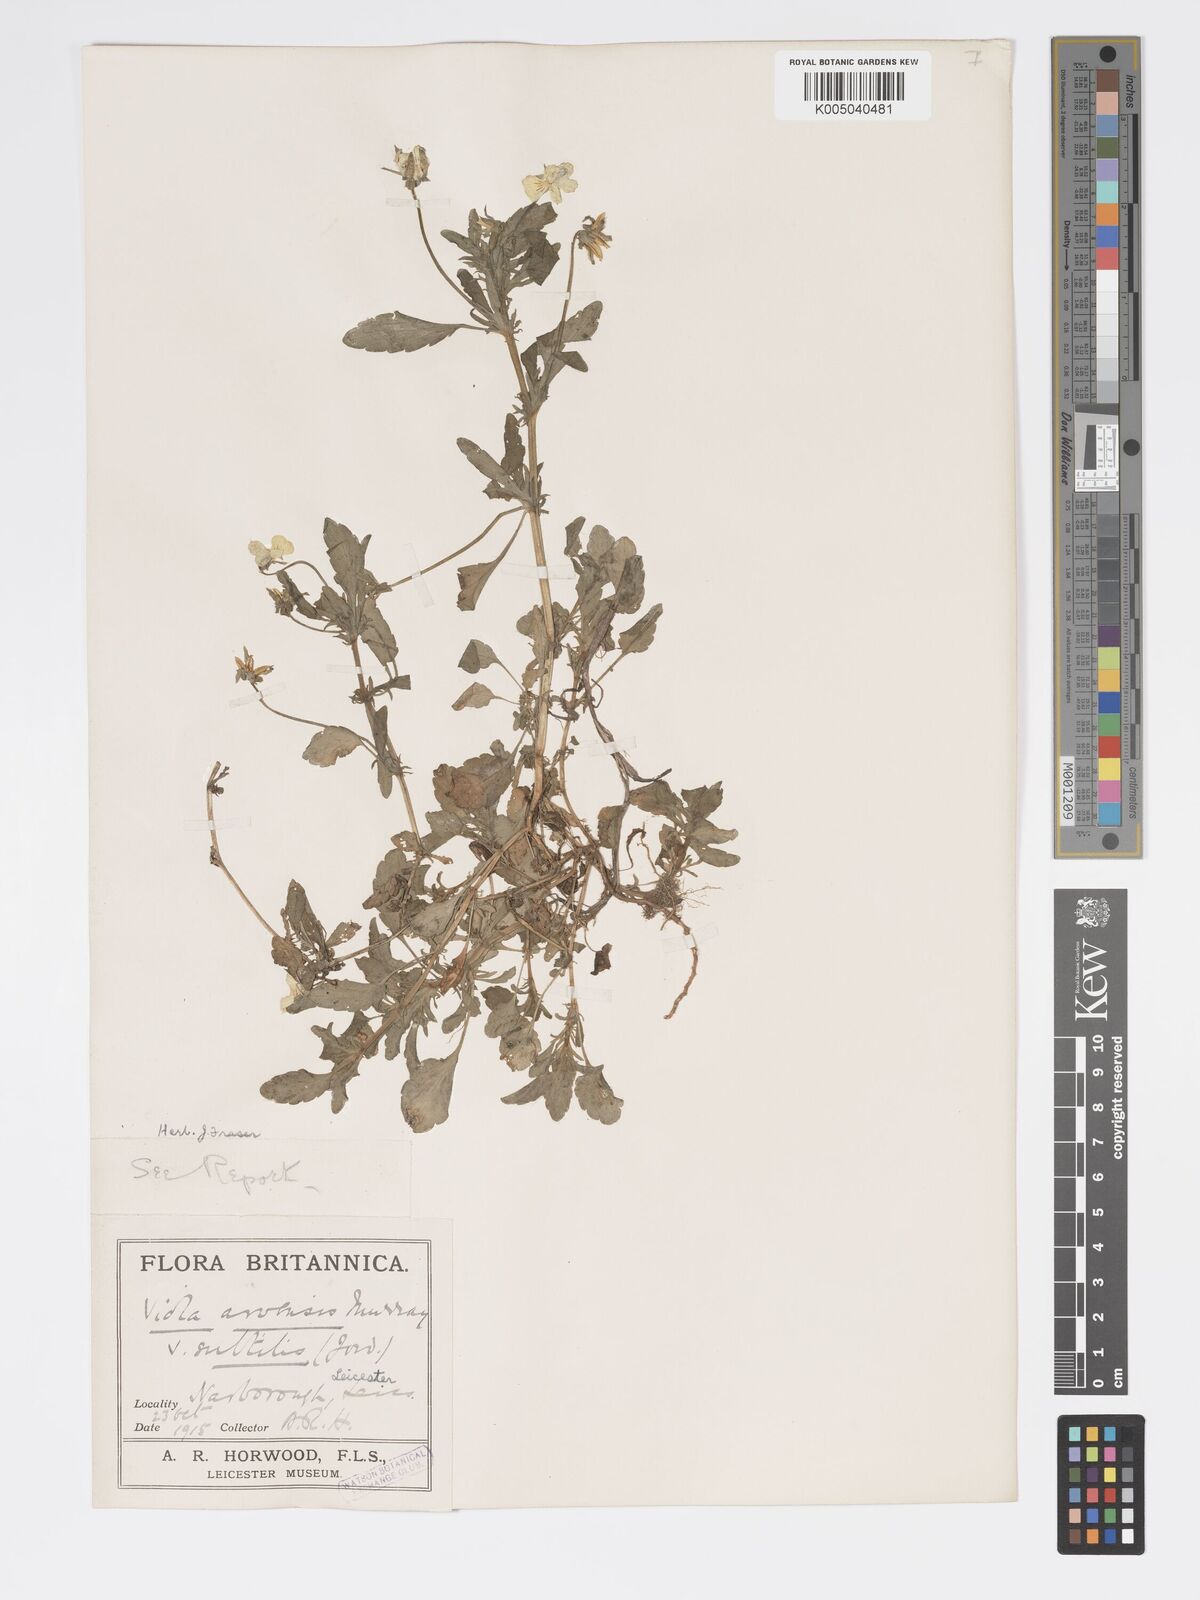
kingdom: Plantae
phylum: Tracheophyta
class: Magnoliopsida
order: Malpighiales
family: Violaceae
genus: Viola
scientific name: Viola arvensis
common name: Field pansy
